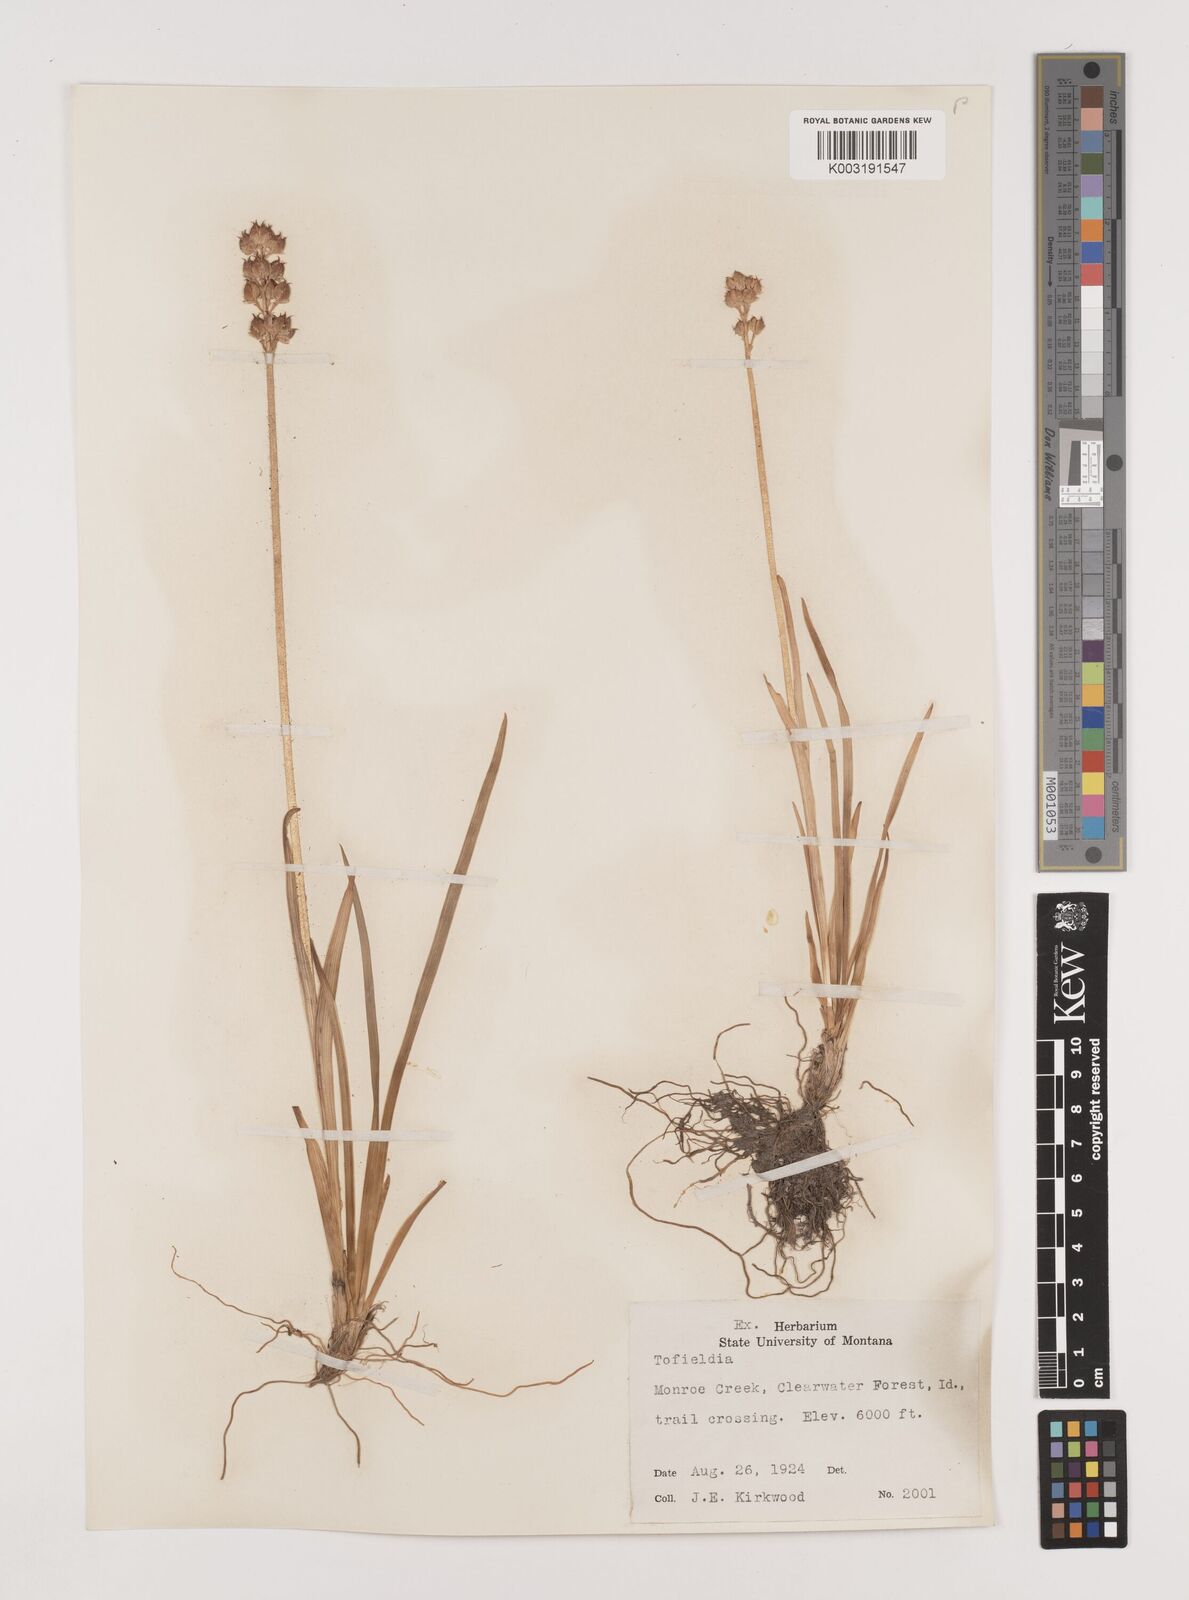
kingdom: Plantae
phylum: Tracheophyta
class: Liliopsida
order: Alismatales
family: Tofieldiaceae
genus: Triantha
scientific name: Triantha occidentalis
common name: Western false asphodel
